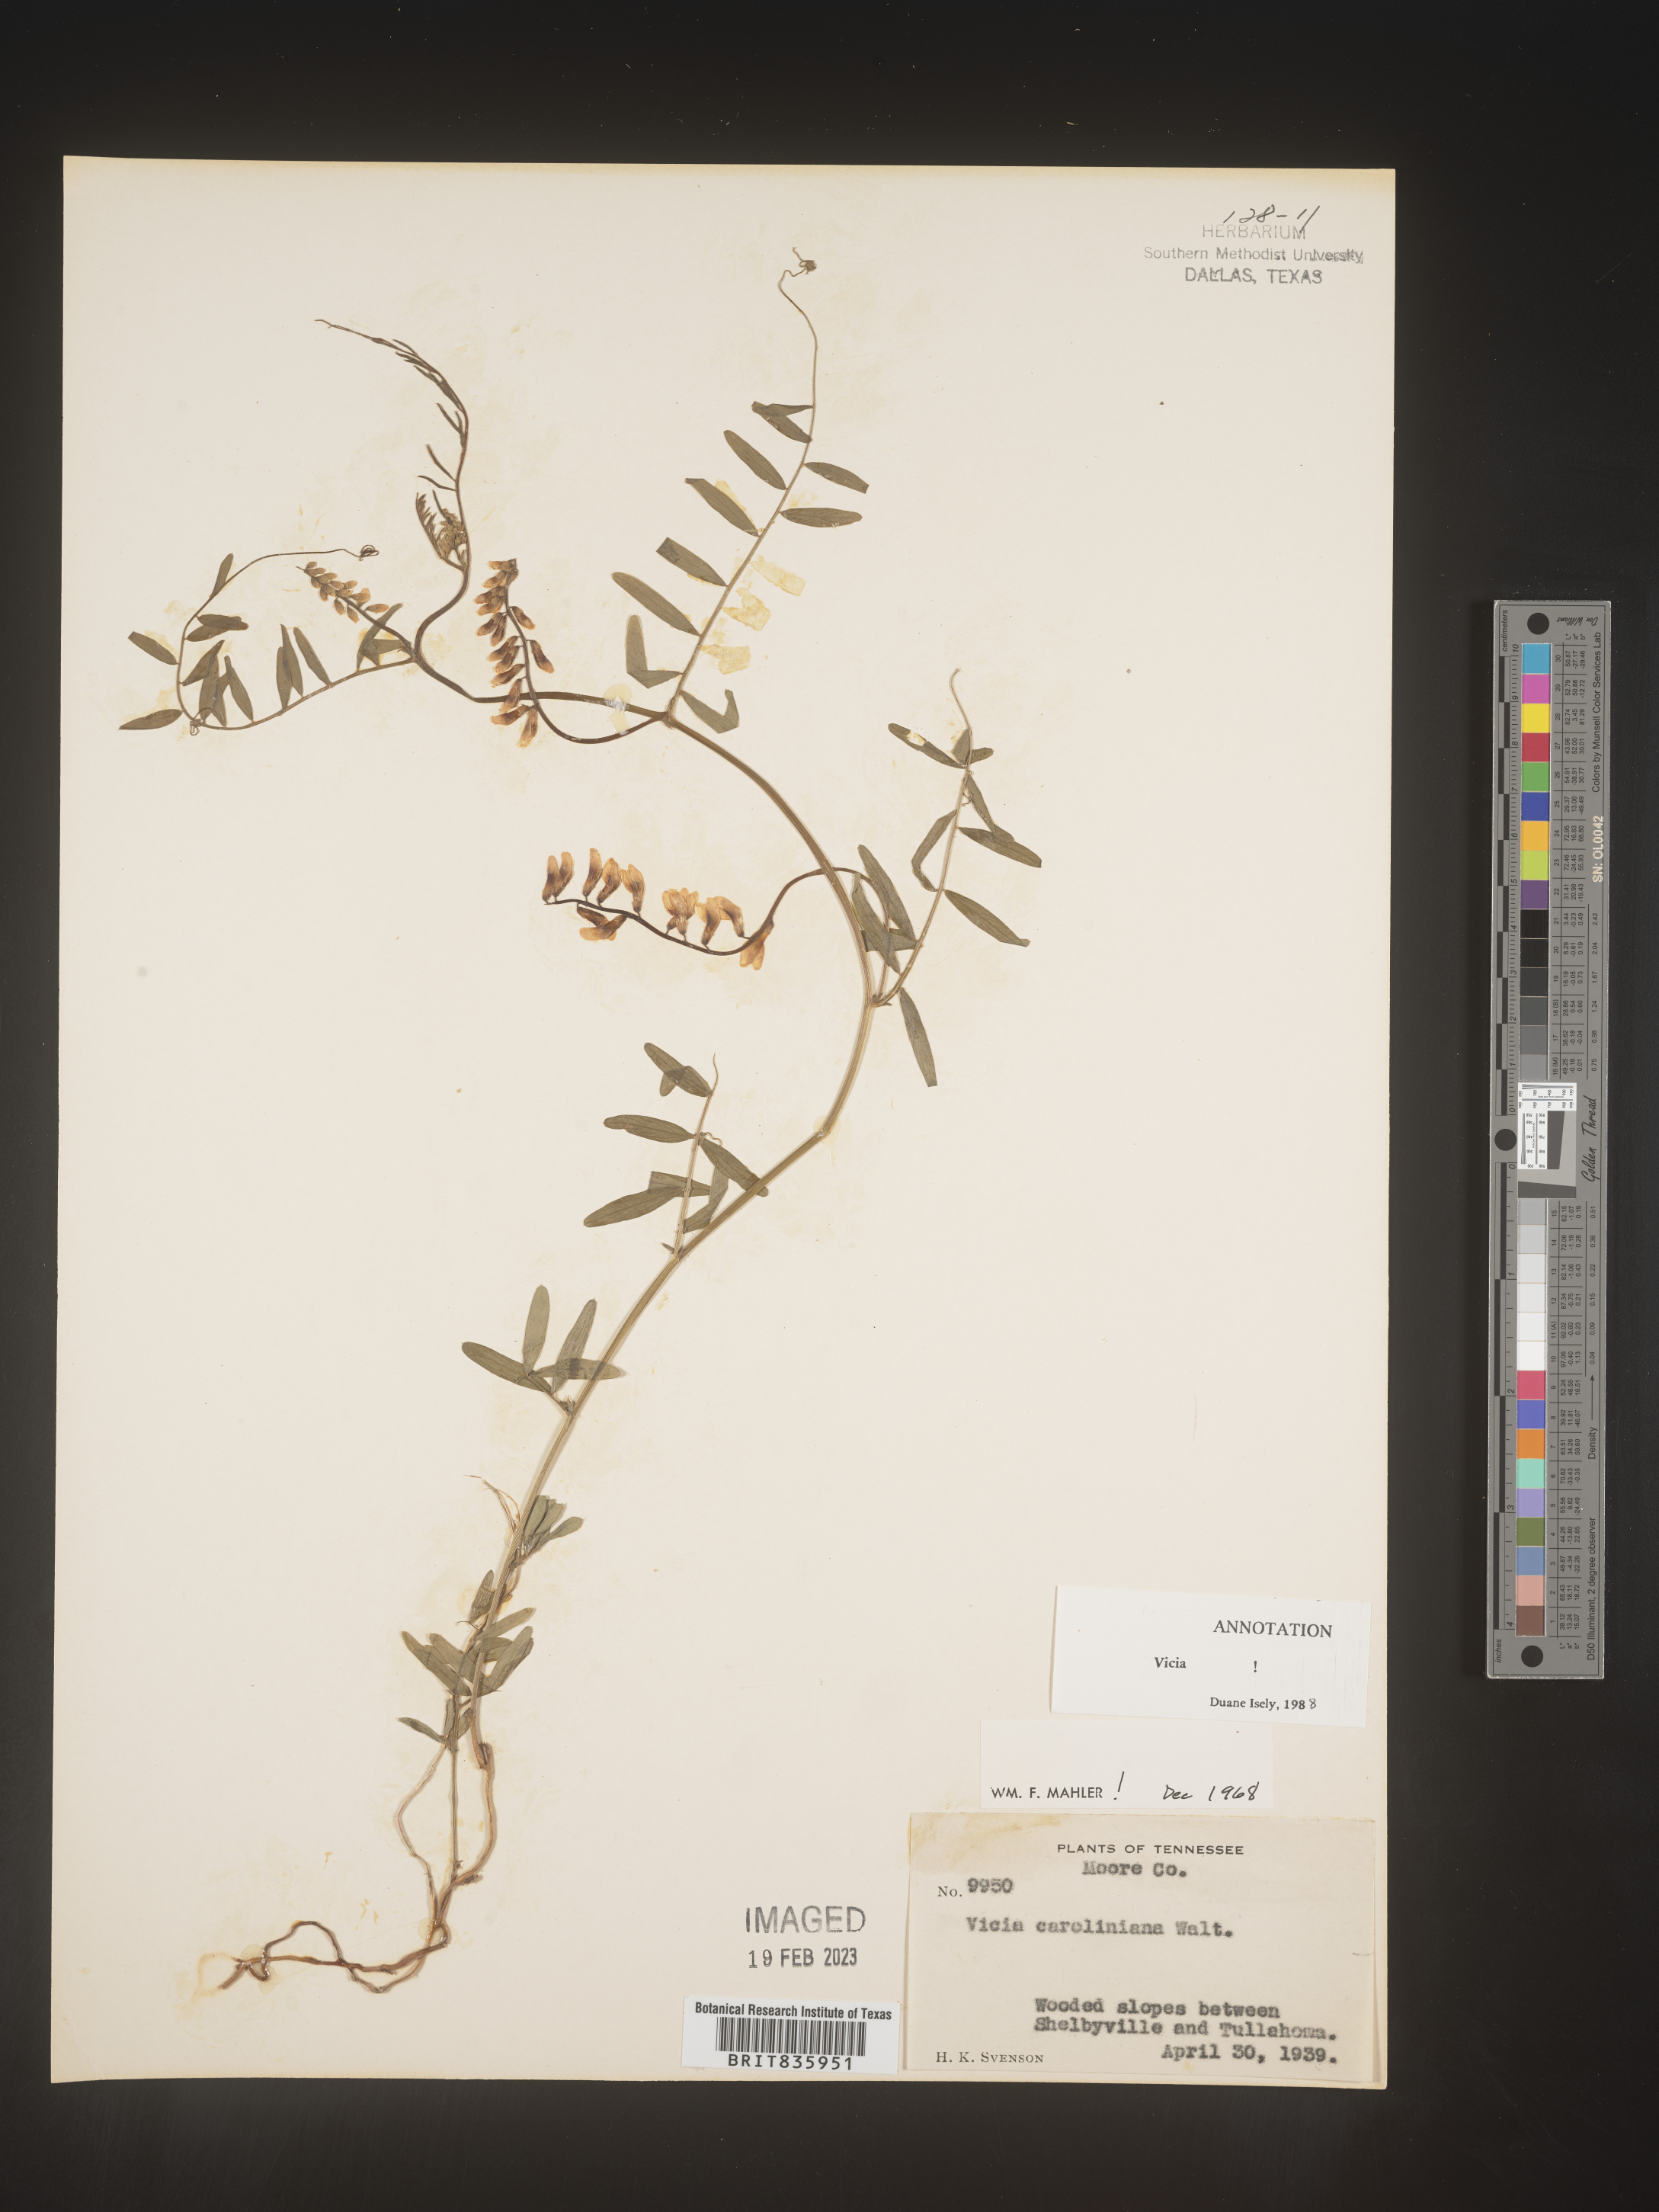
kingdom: Plantae
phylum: Tracheophyta
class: Magnoliopsida
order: Fabales
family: Fabaceae
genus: Vicia
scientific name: Vicia caroliniana
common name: Carolina vetch
